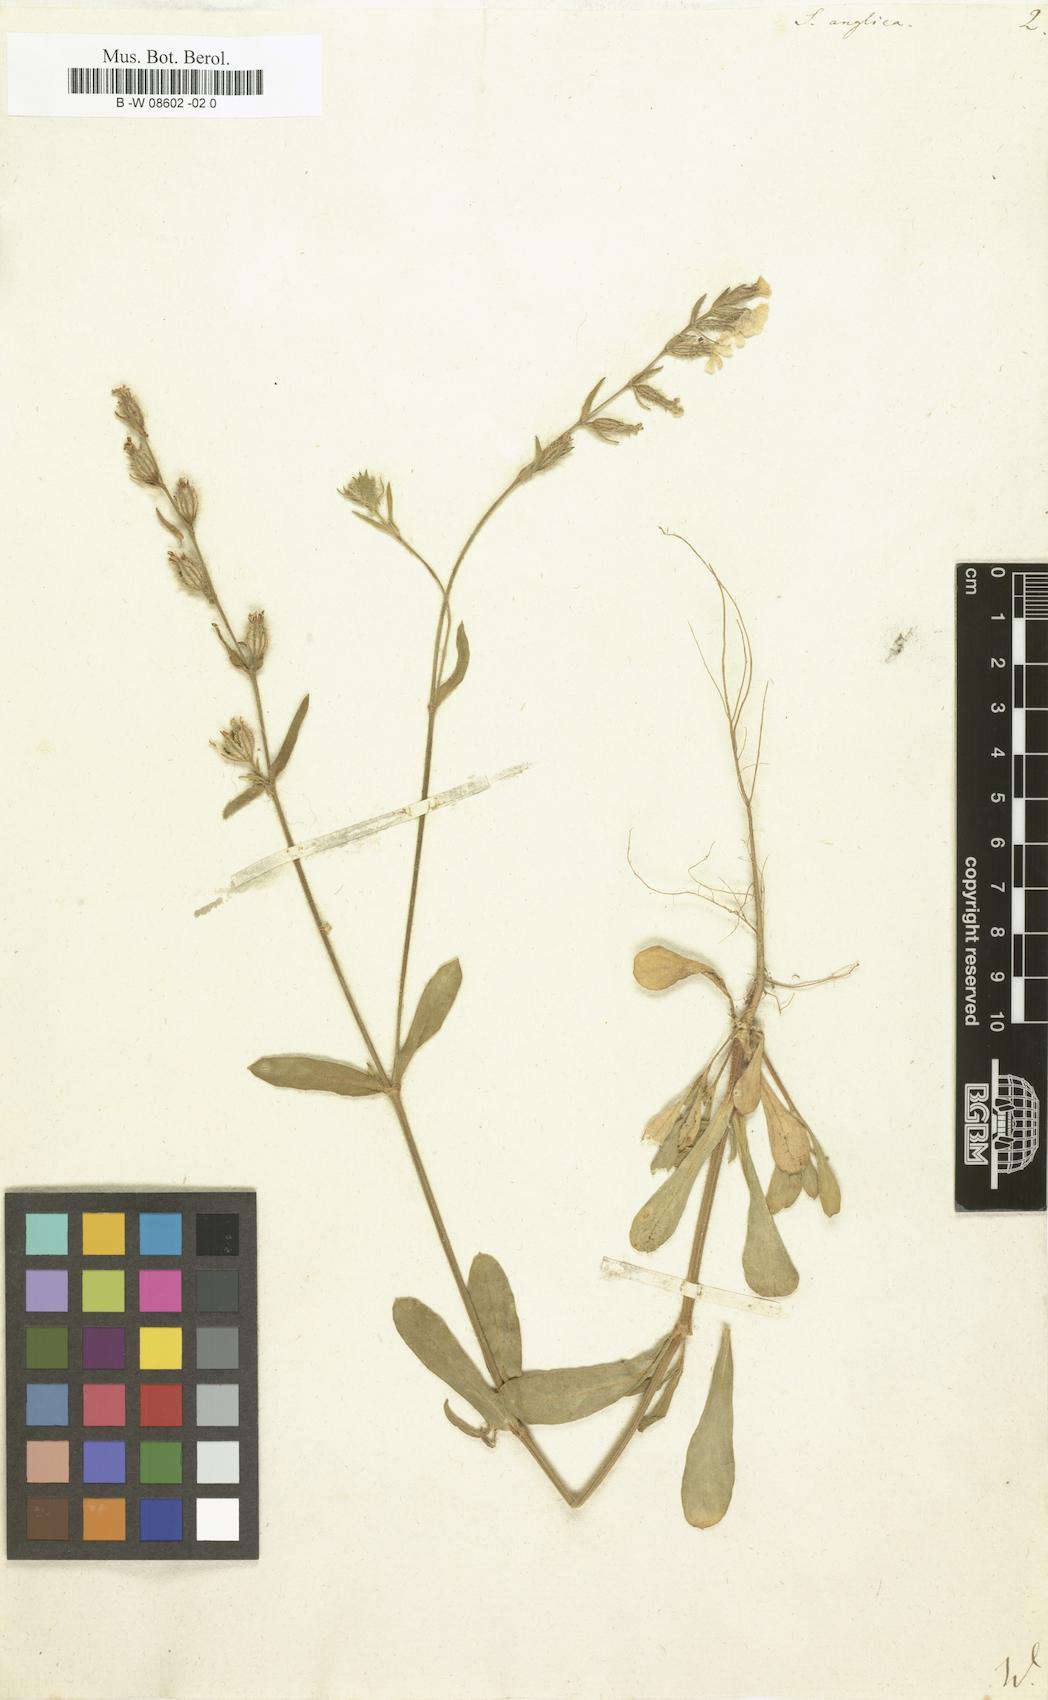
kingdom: Plantae
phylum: Tracheophyta
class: Magnoliopsida
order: Caryophyllales
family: Caryophyllaceae
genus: Silene
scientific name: Silene gallica
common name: Small-flowered catchfly
